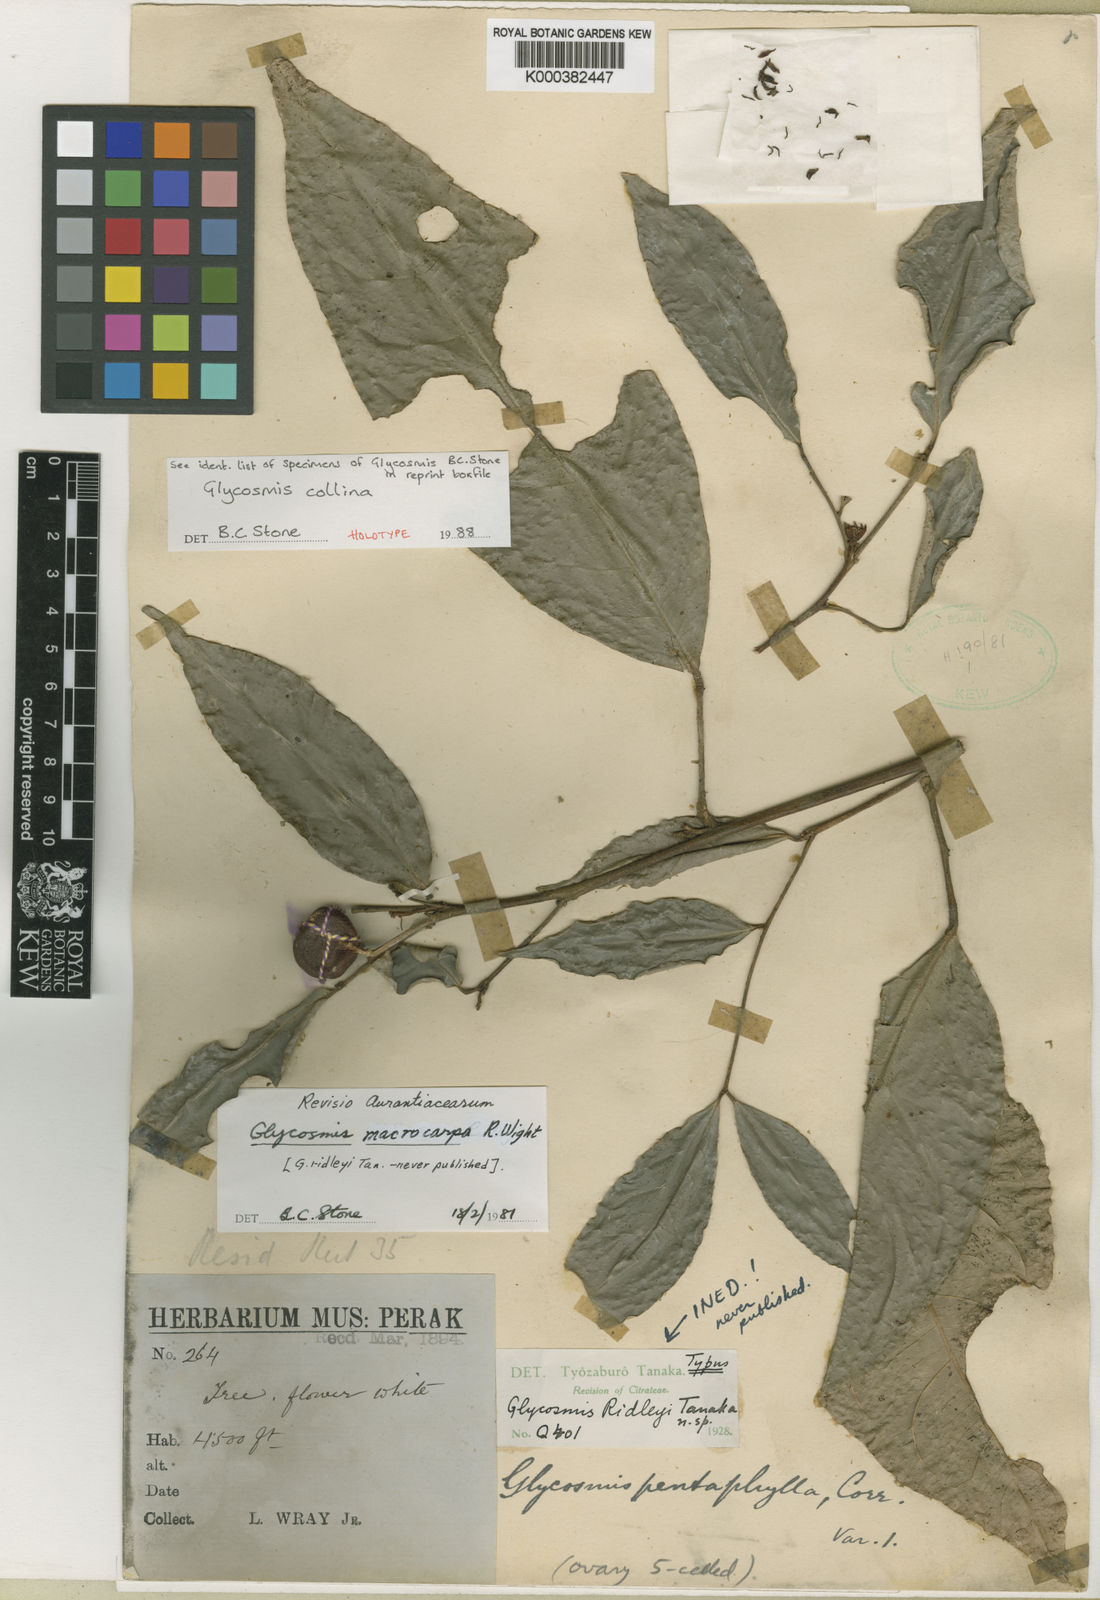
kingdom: Plantae
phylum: Tracheophyta
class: Magnoliopsida
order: Sapindales
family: Rutaceae
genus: Glycosmis
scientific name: Glycosmis collina
